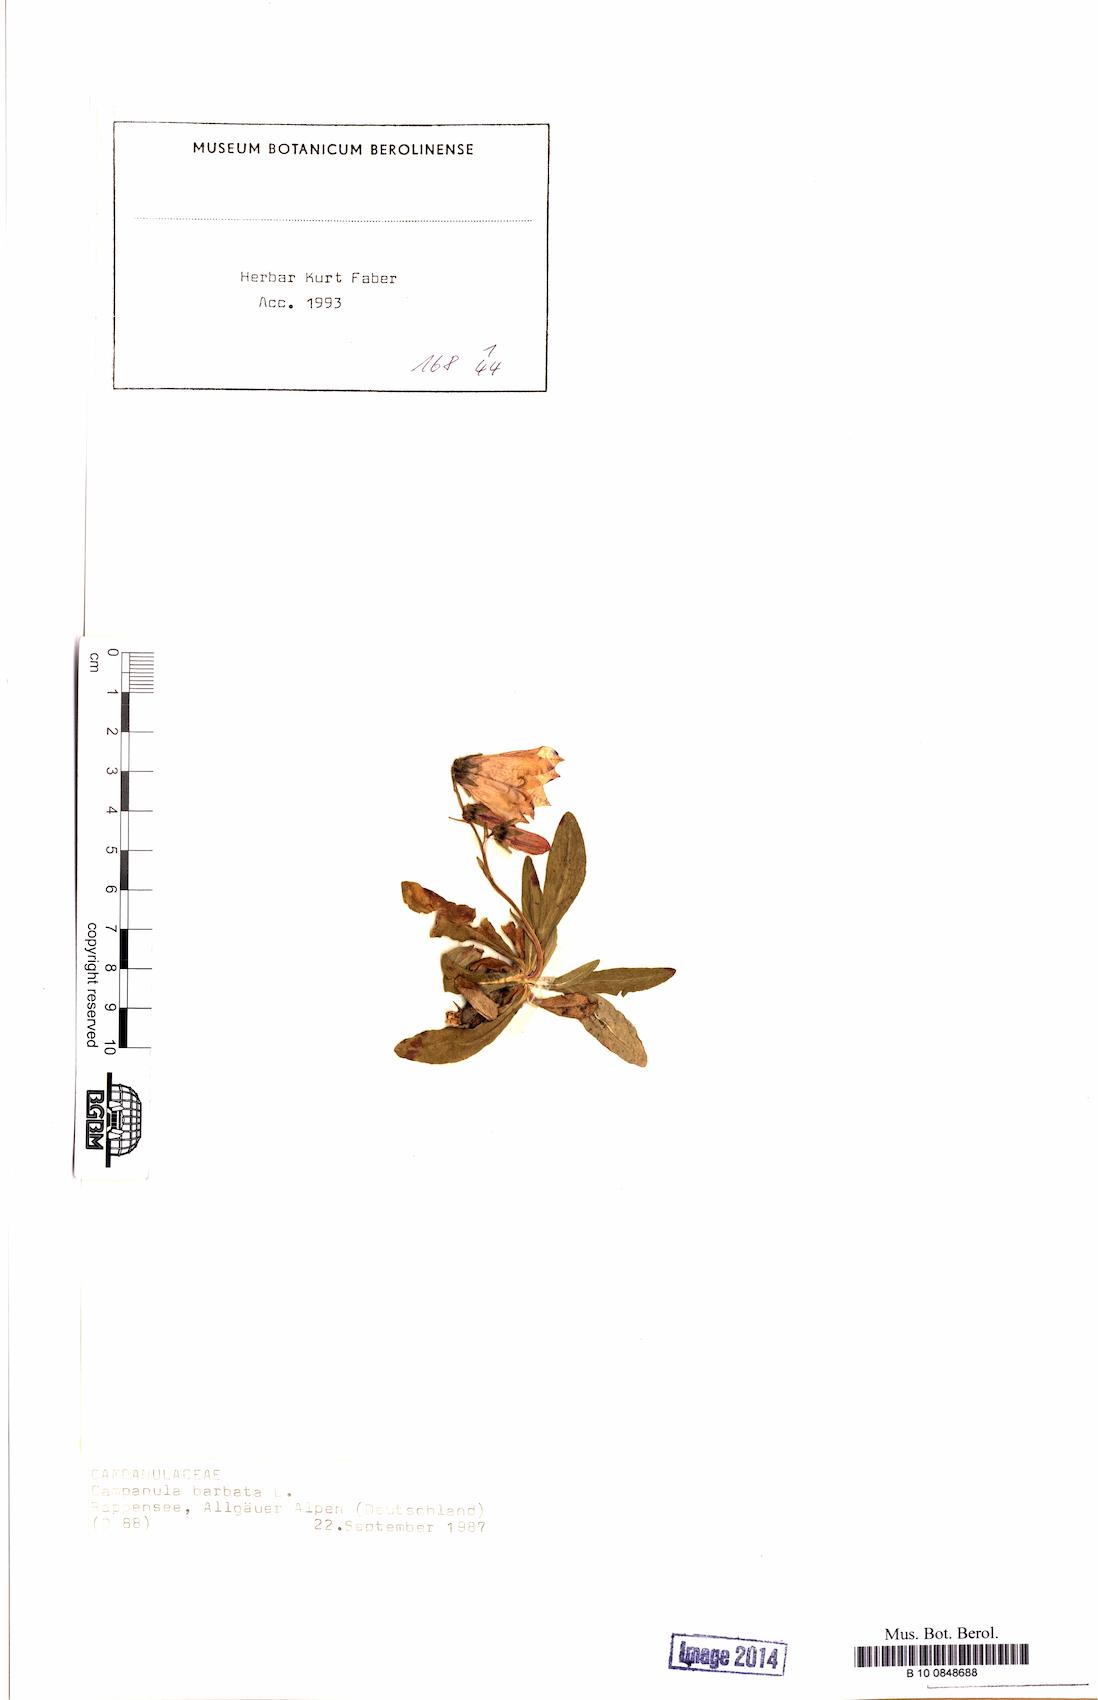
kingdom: Plantae
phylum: Tracheophyta
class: Magnoliopsida
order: Asterales
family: Campanulaceae
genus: Campanula
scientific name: Campanula barbata
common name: Bearded bellflower
